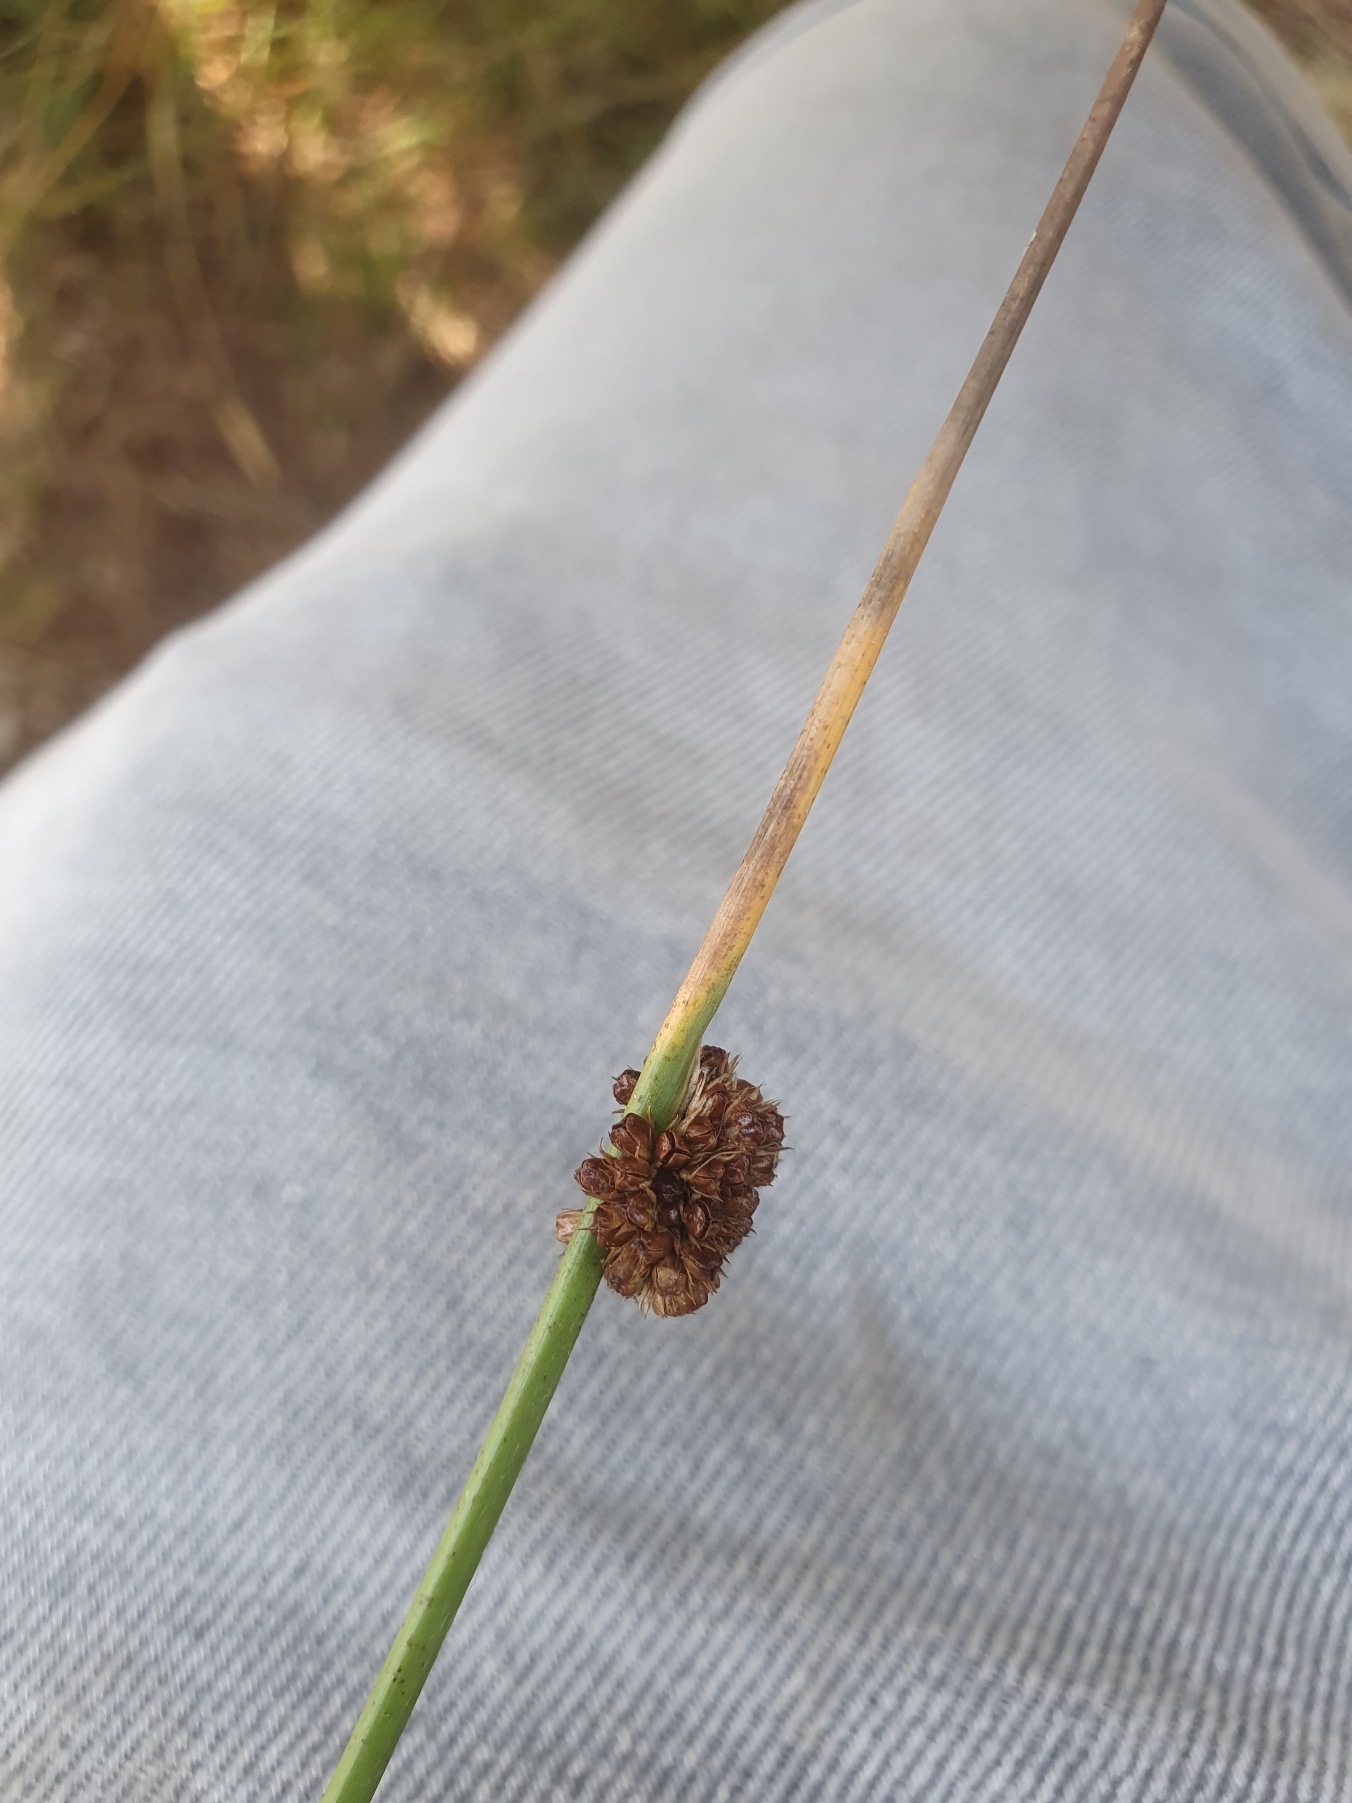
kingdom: Plantae
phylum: Tracheophyta
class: Liliopsida
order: Poales
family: Juncaceae
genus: Juncus
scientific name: Juncus conglomeratus
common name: Knop-siv
